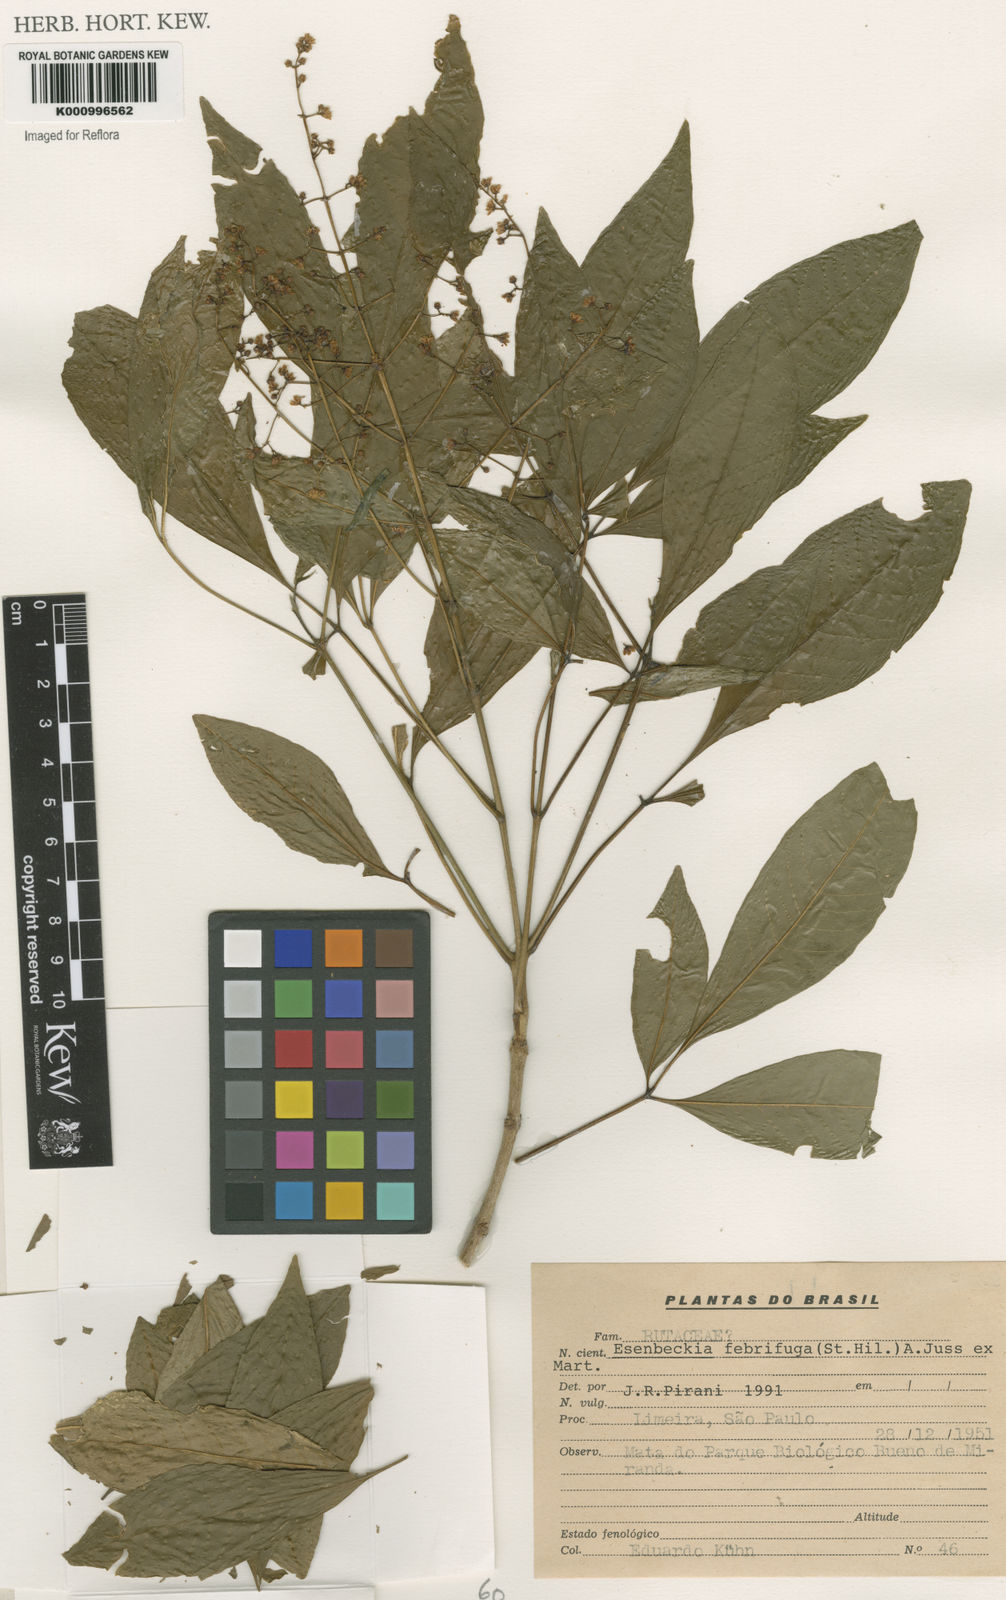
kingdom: Plantae
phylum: Tracheophyta
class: Magnoliopsida
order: Sapindales
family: Rutaceae
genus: Esenbeckia
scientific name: Esenbeckia febrifuga
